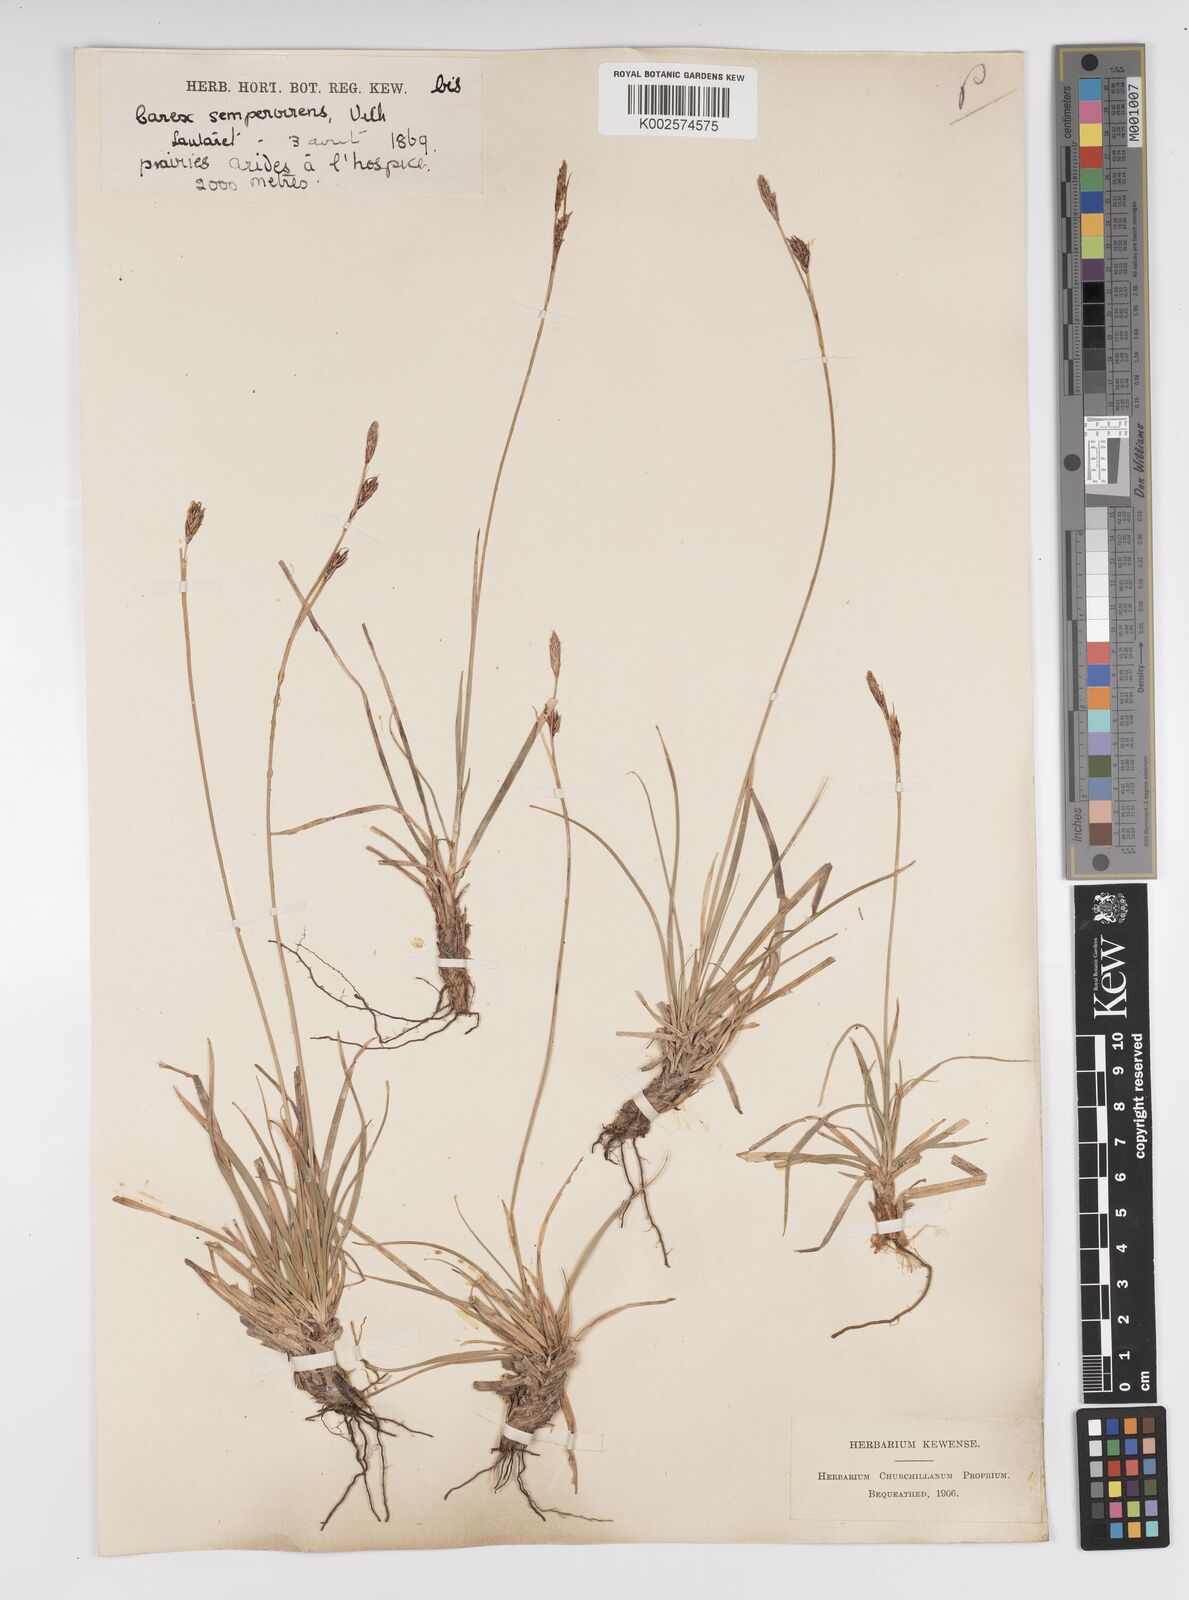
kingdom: Plantae
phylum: Tracheophyta
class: Liliopsida
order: Poales
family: Cyperaceae
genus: Carex
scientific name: Carex sempervirens
